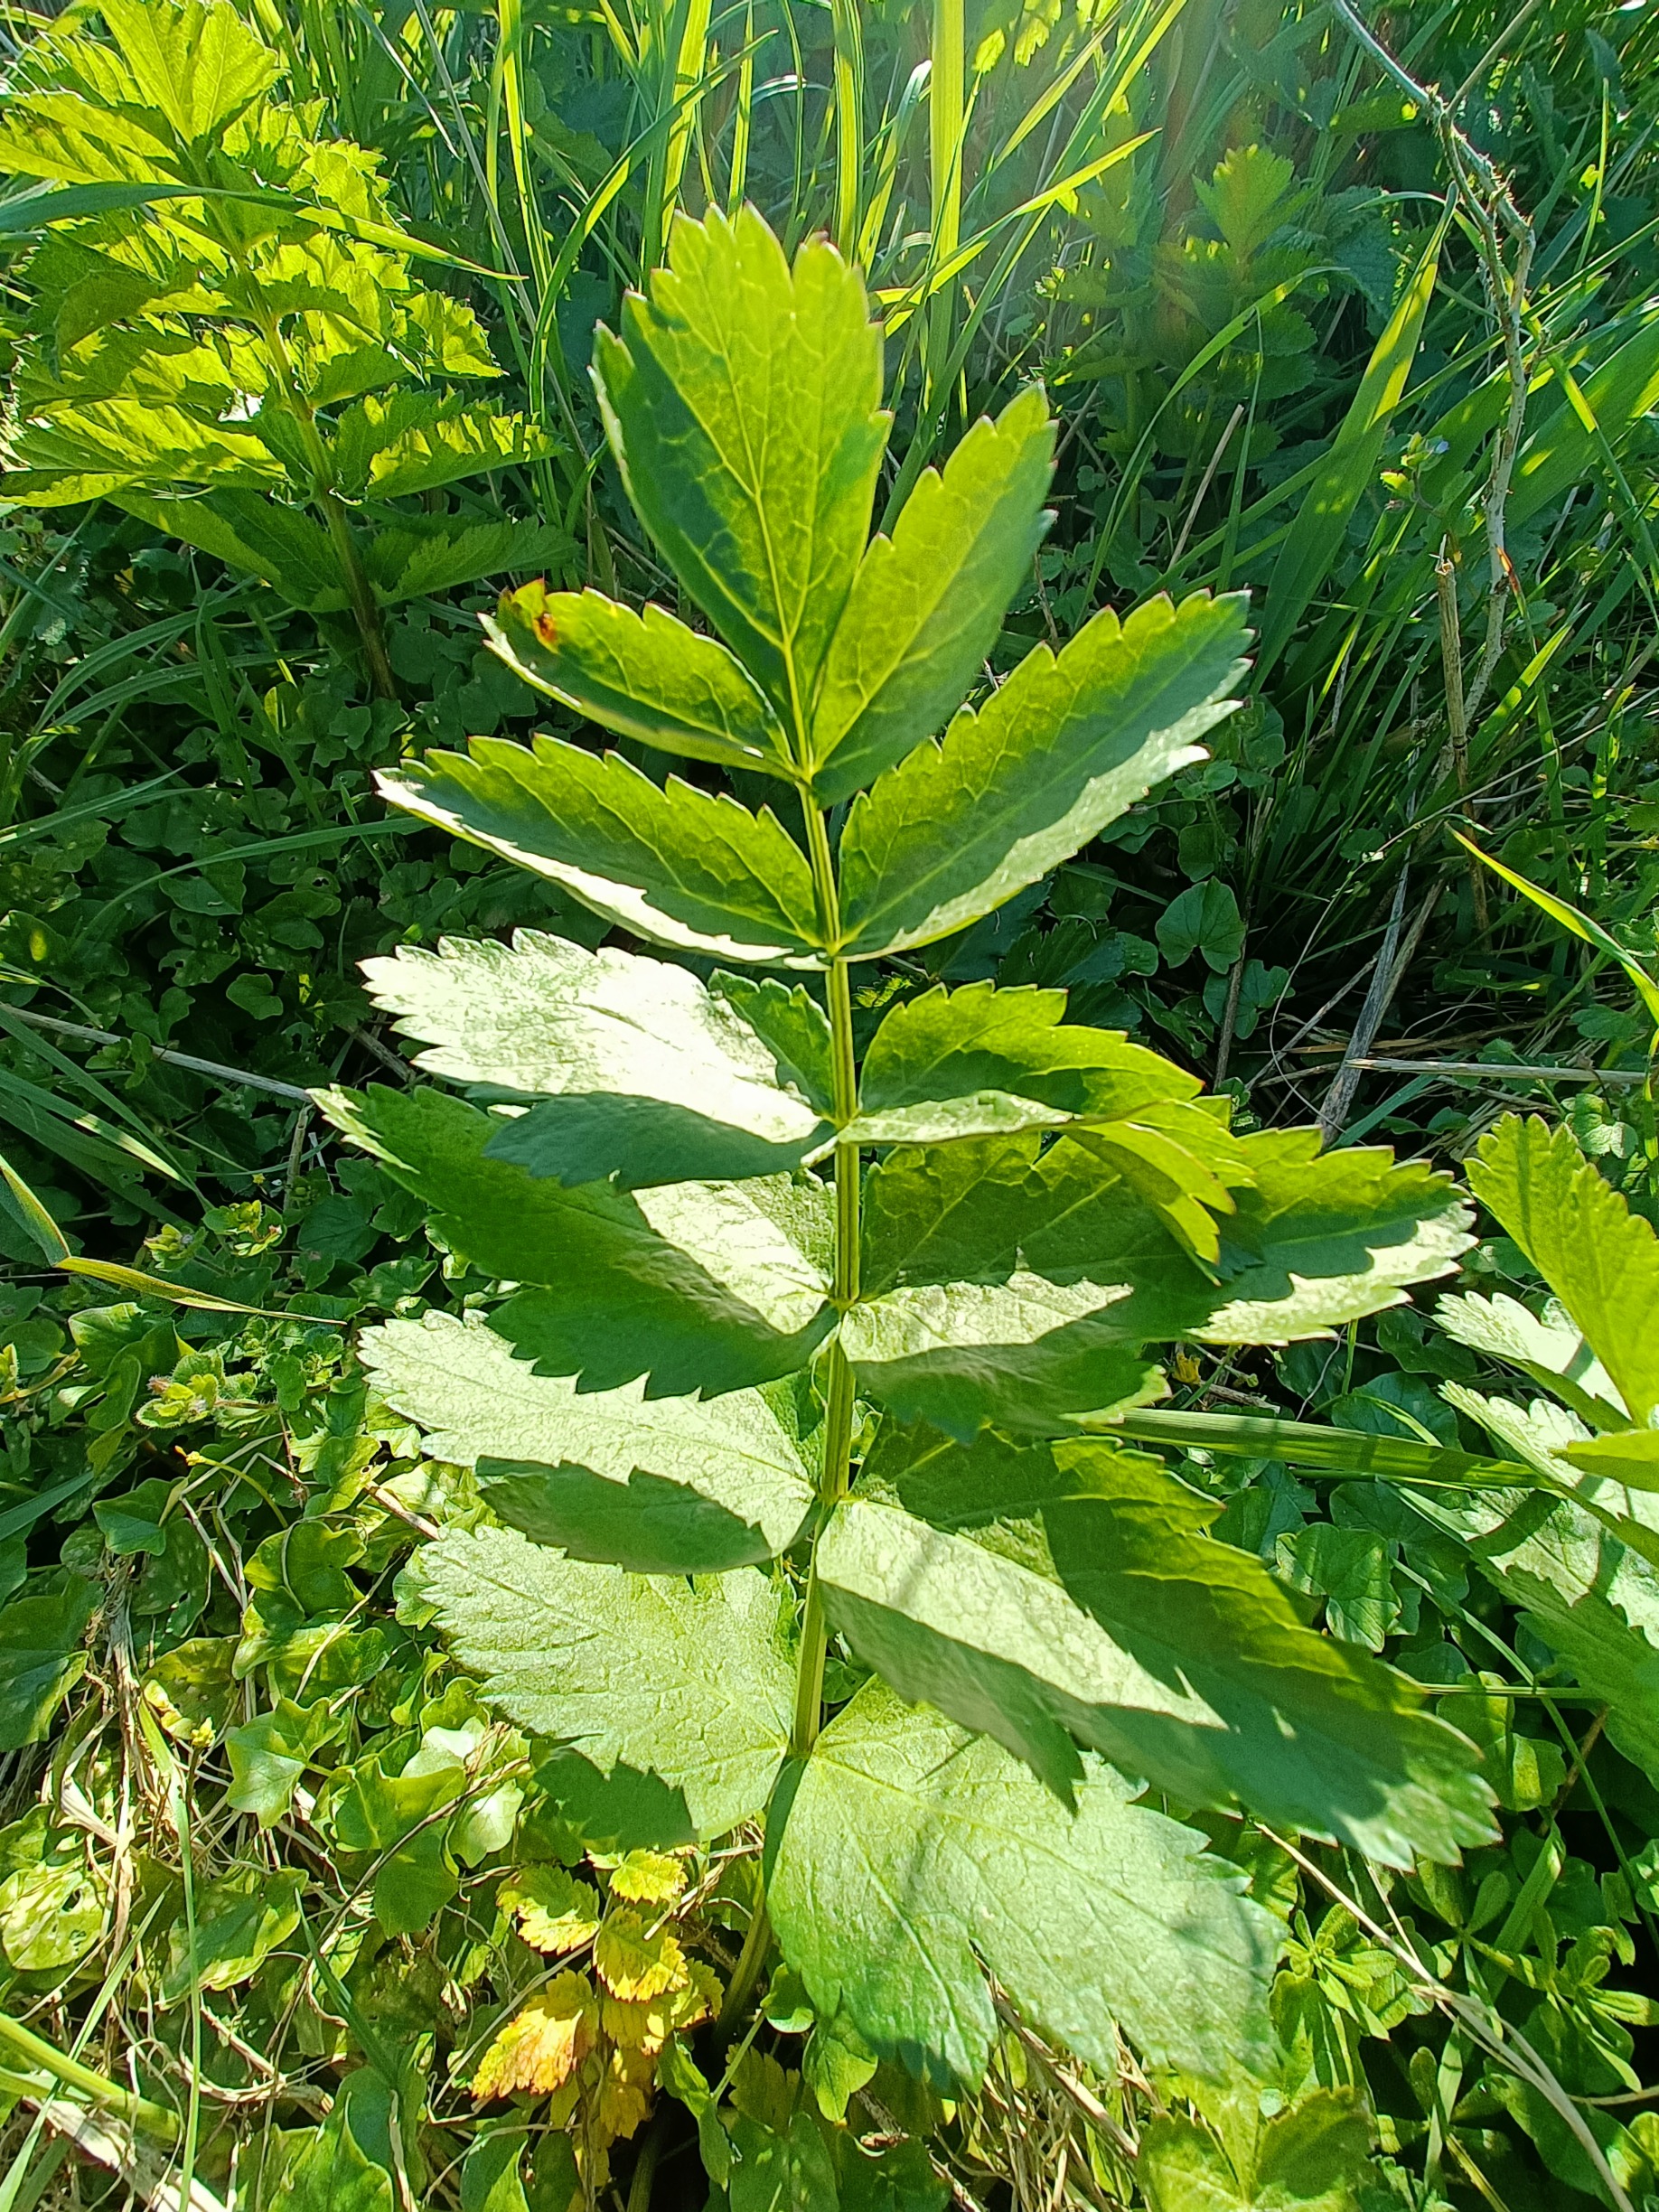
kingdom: Plantae
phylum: Tracheophyta
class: Magnoliopsida
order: Apiales
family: Apiaceae
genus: Pastinaca
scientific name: Pastinaca sativa
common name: Pastinak
